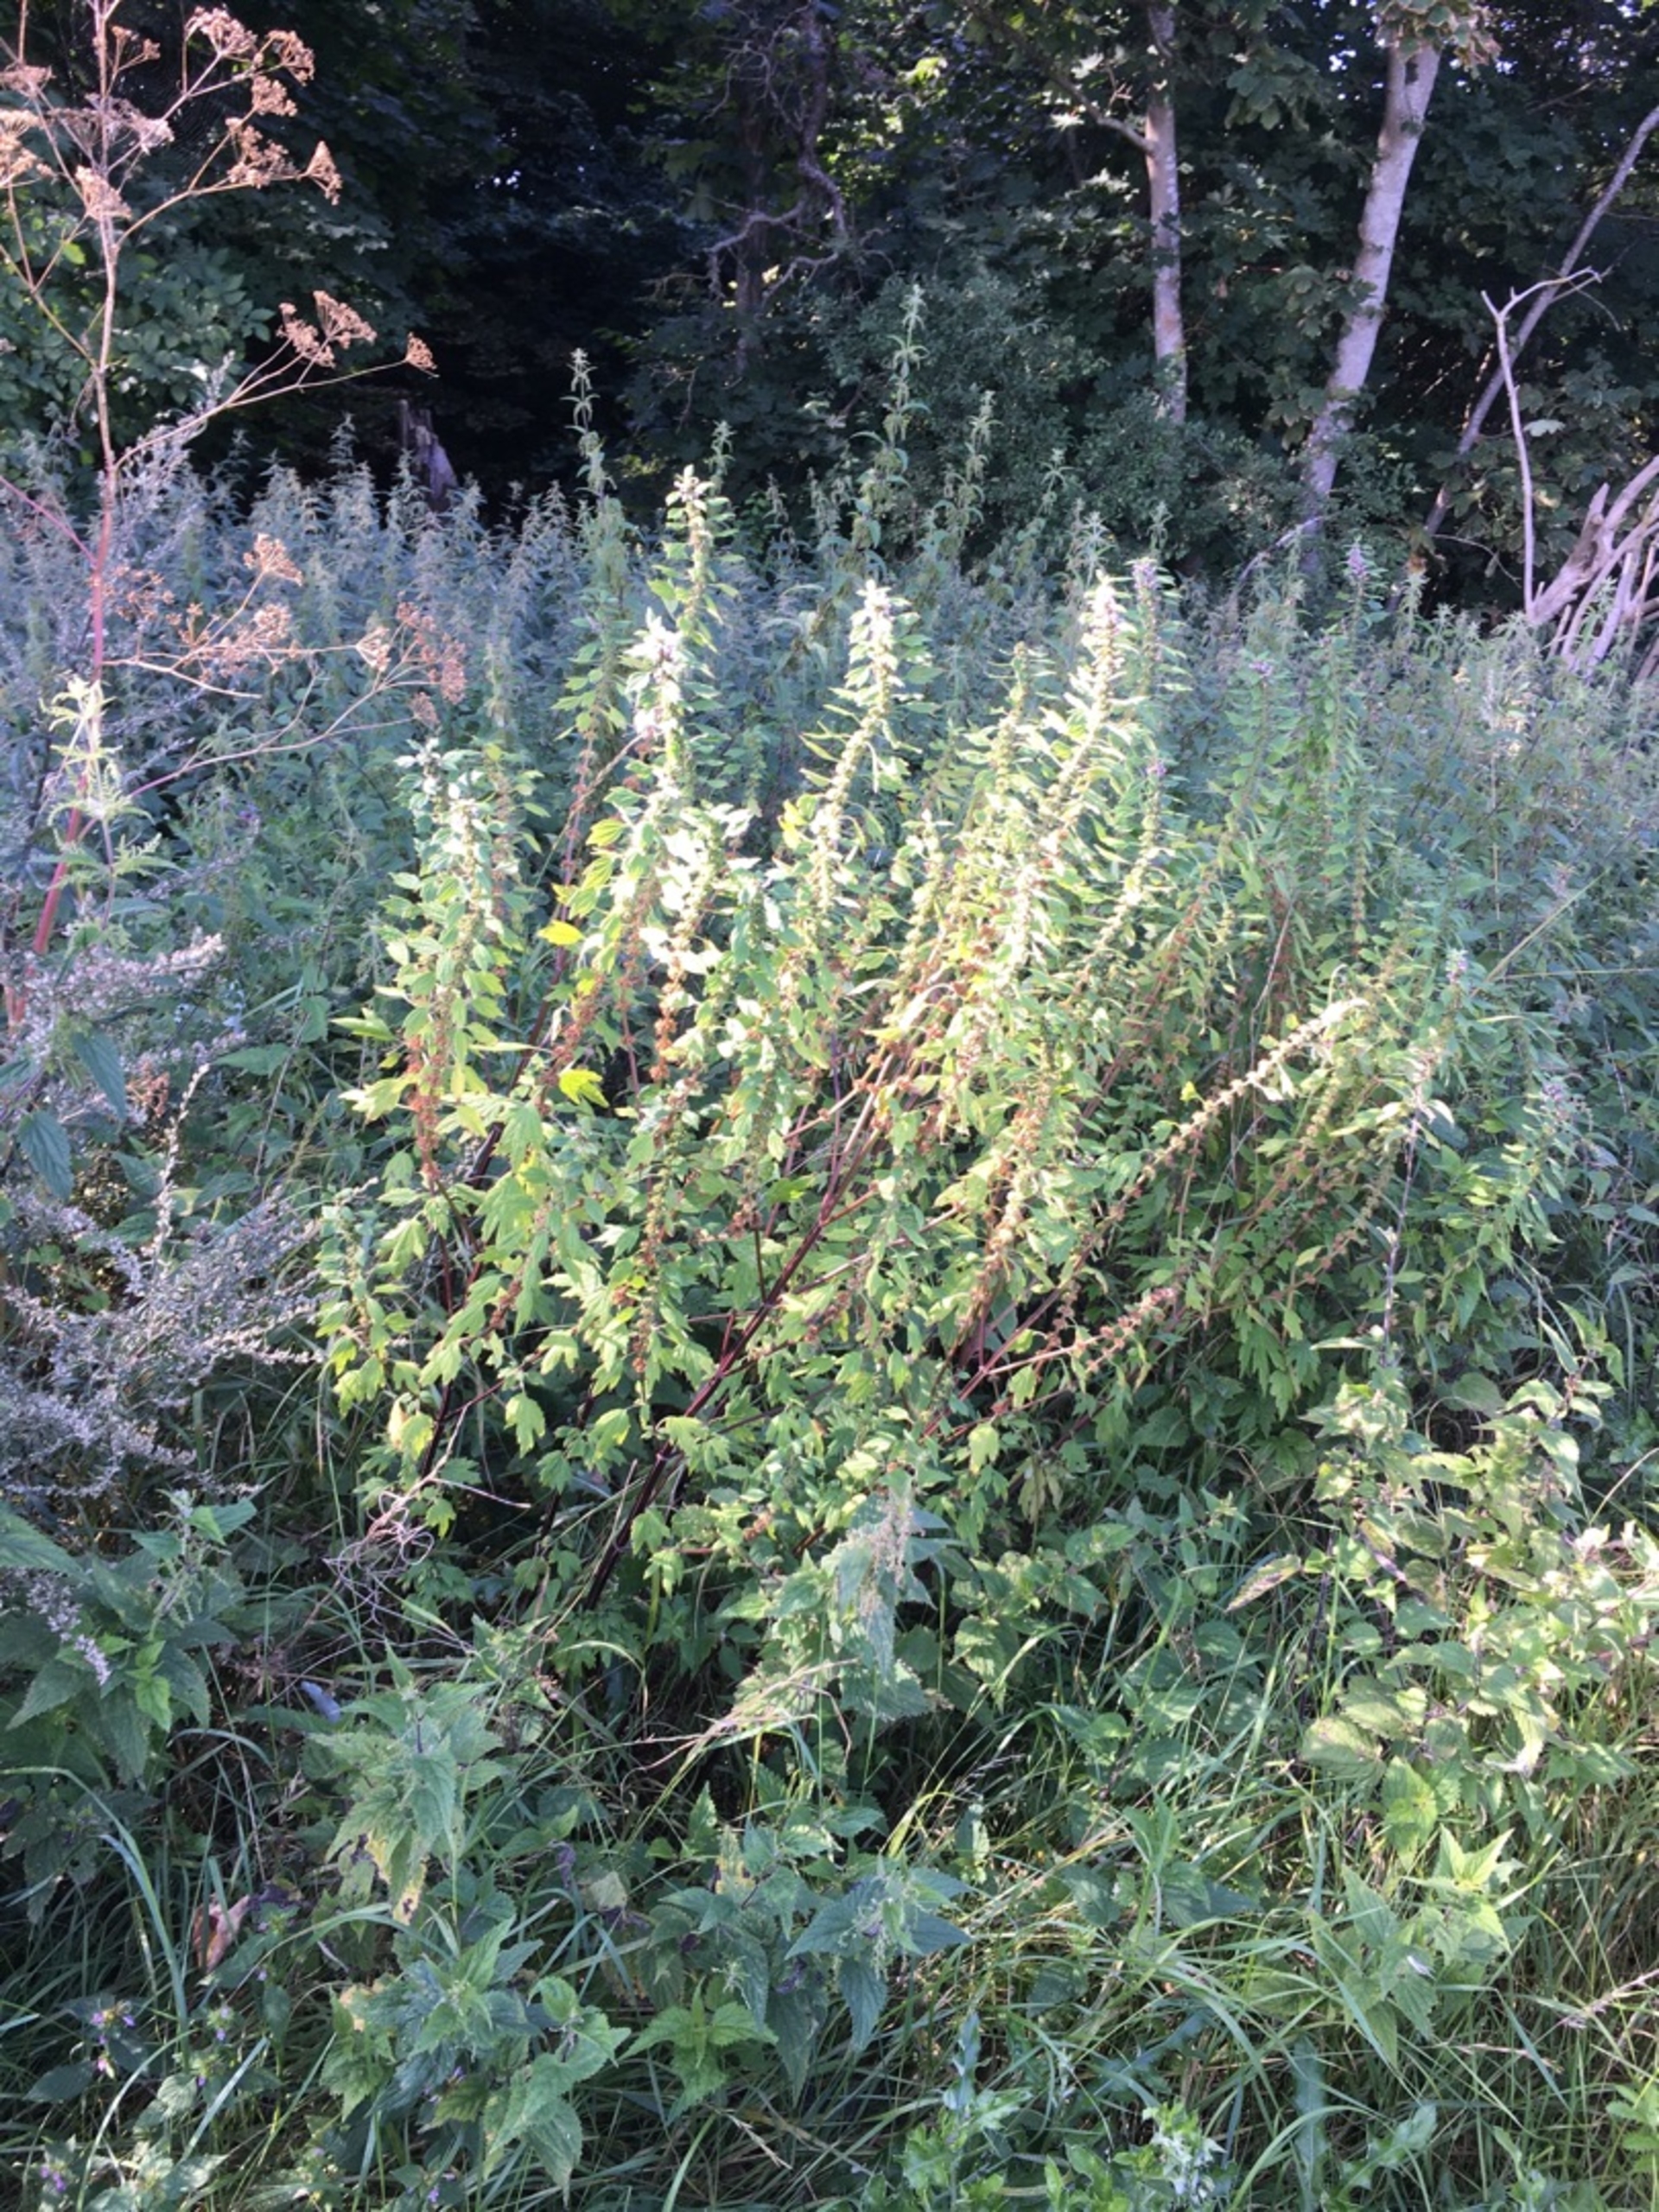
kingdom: Plantae
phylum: Tracheophyta
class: Magnoliopsida
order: Lamiales
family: Lamiaceae
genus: Leonurus
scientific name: Leonurus cardiaca
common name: Hjertespand
